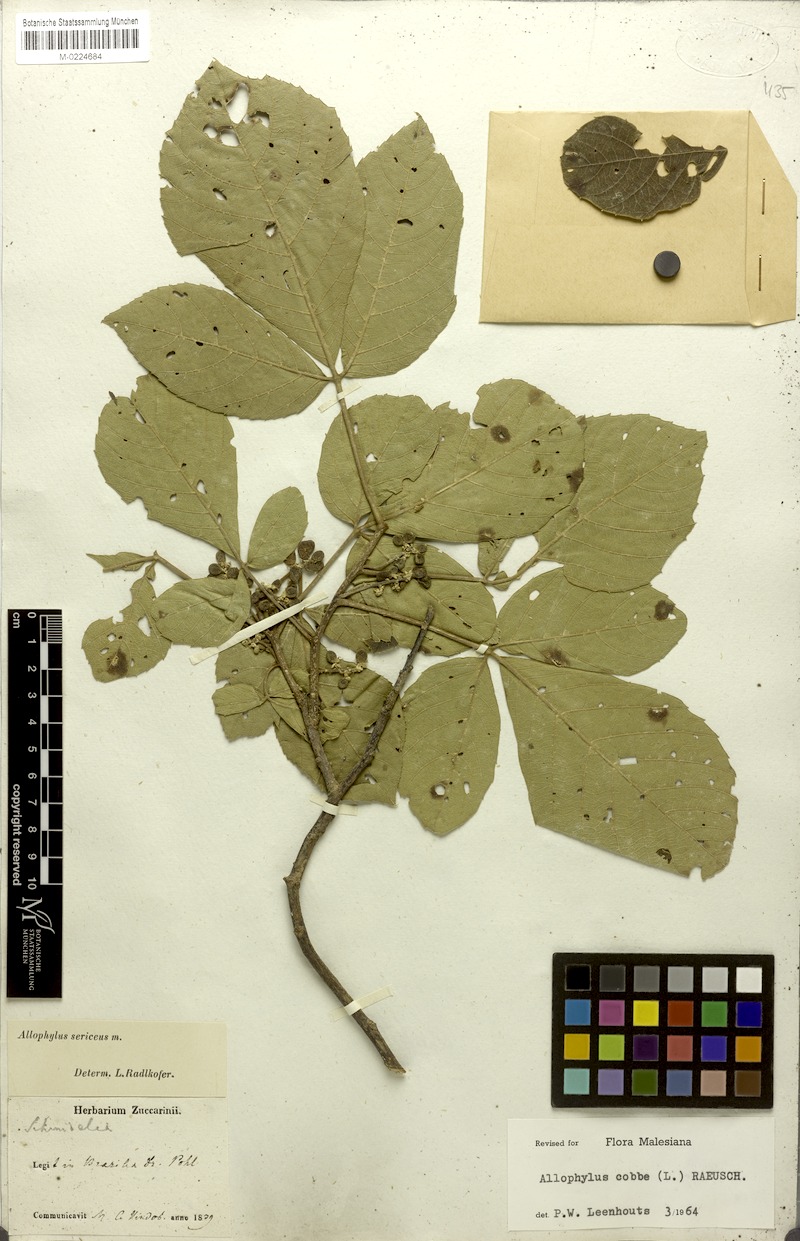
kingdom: Plantae
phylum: Tracheophyta
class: Magnoliopsida
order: Sapindales
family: Sapindaceae
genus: Allophylus
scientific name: Allophylus sericeus
